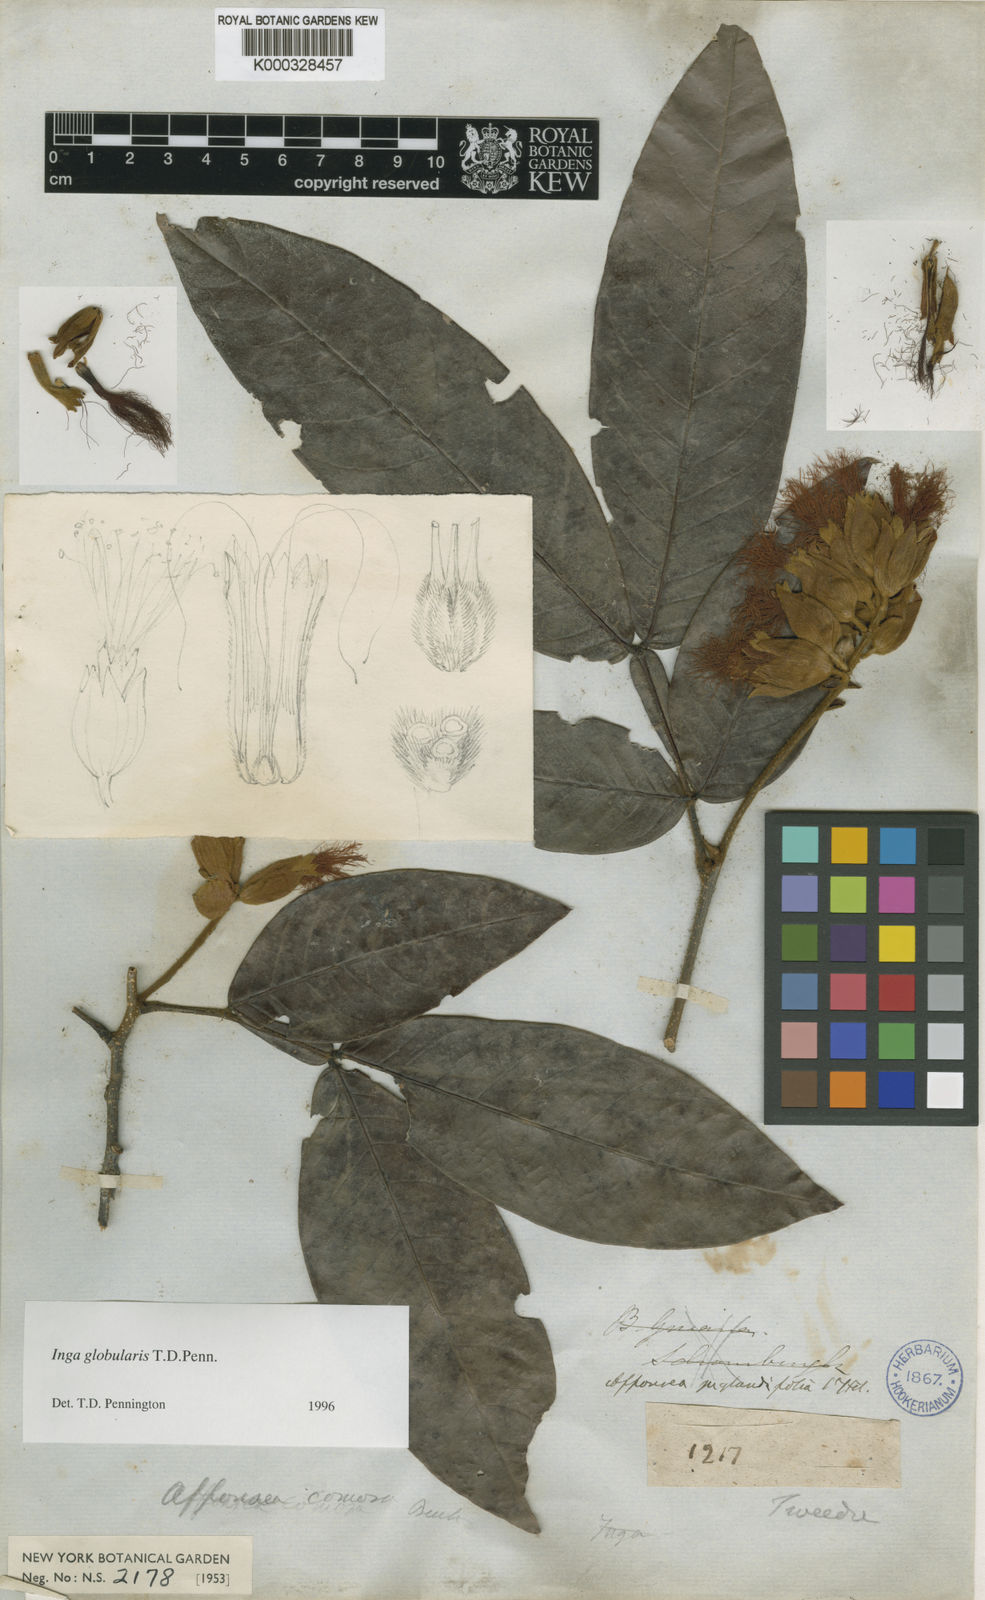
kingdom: Plantae
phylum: Tracheophyta
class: Magnoliopsida
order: Fabales
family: Fabaceae
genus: Inga
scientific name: Inga globularis
